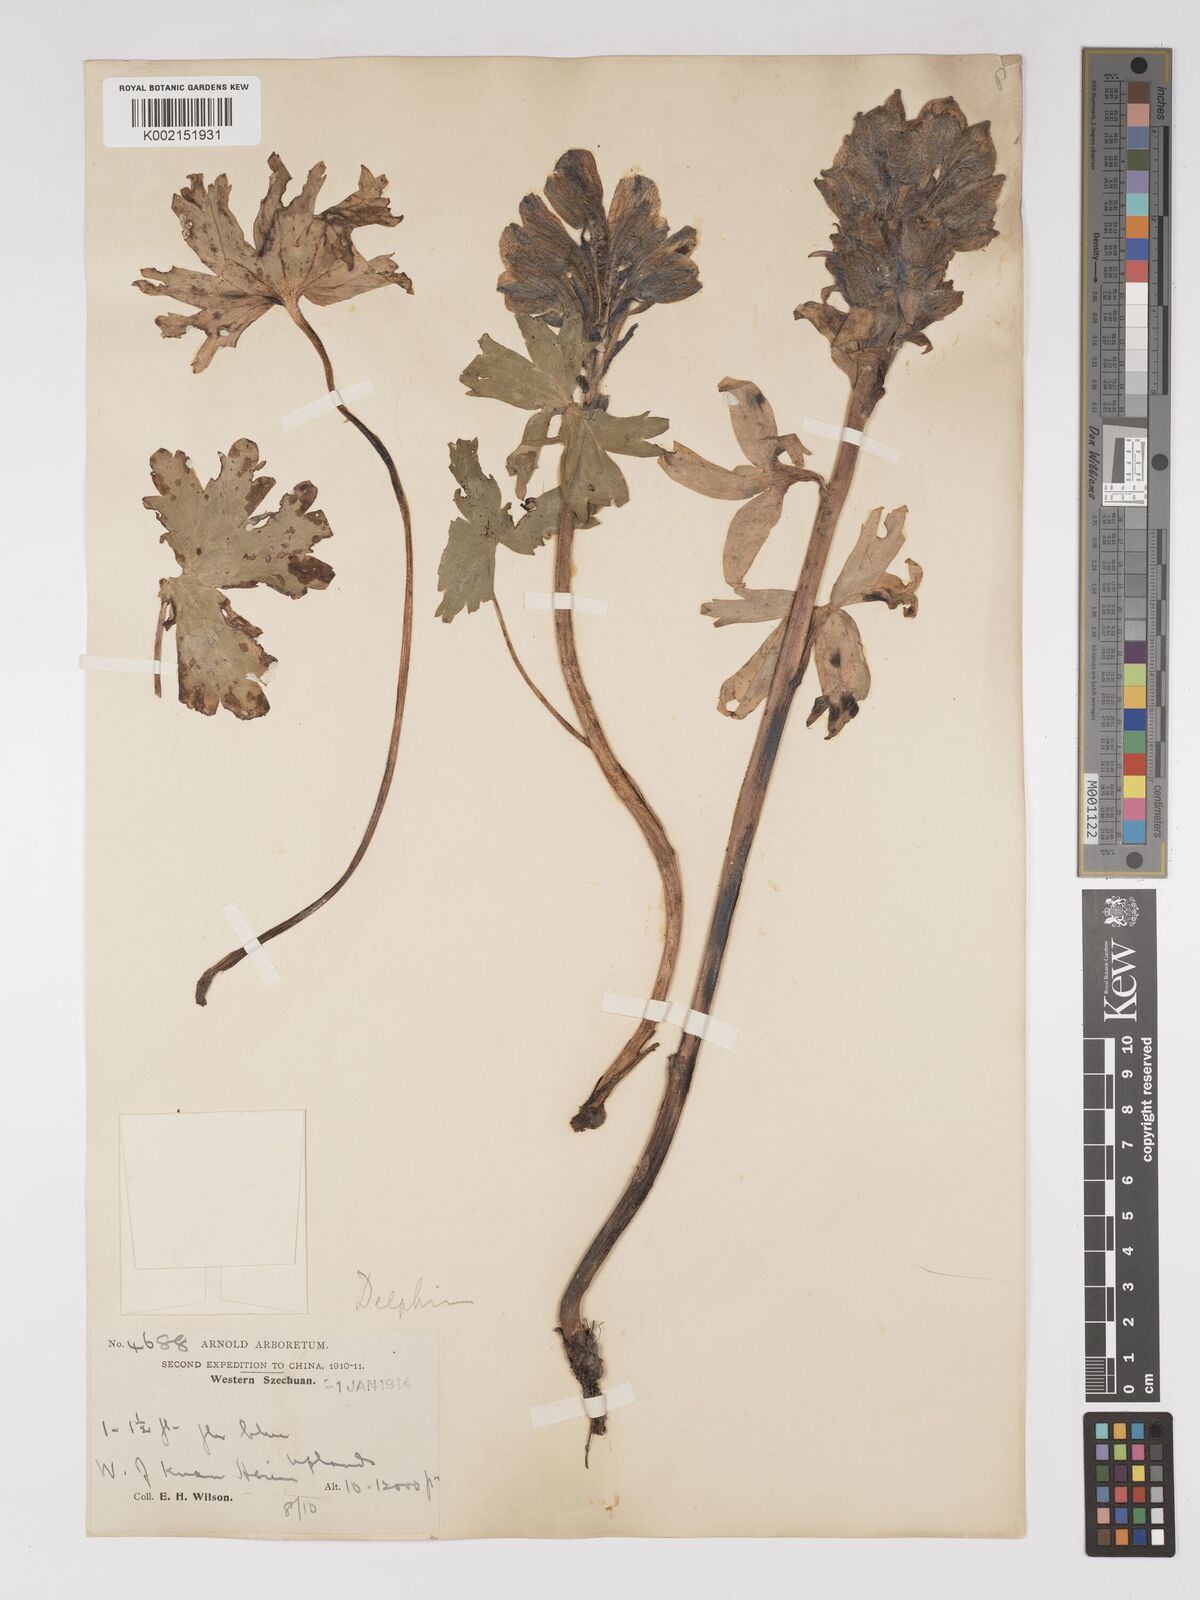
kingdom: Plantae
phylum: Tracheophyta
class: Magnoliopsida
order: Ranunculales
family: Ranunculaceae
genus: Delphinium
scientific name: Delphinium trichophorum
